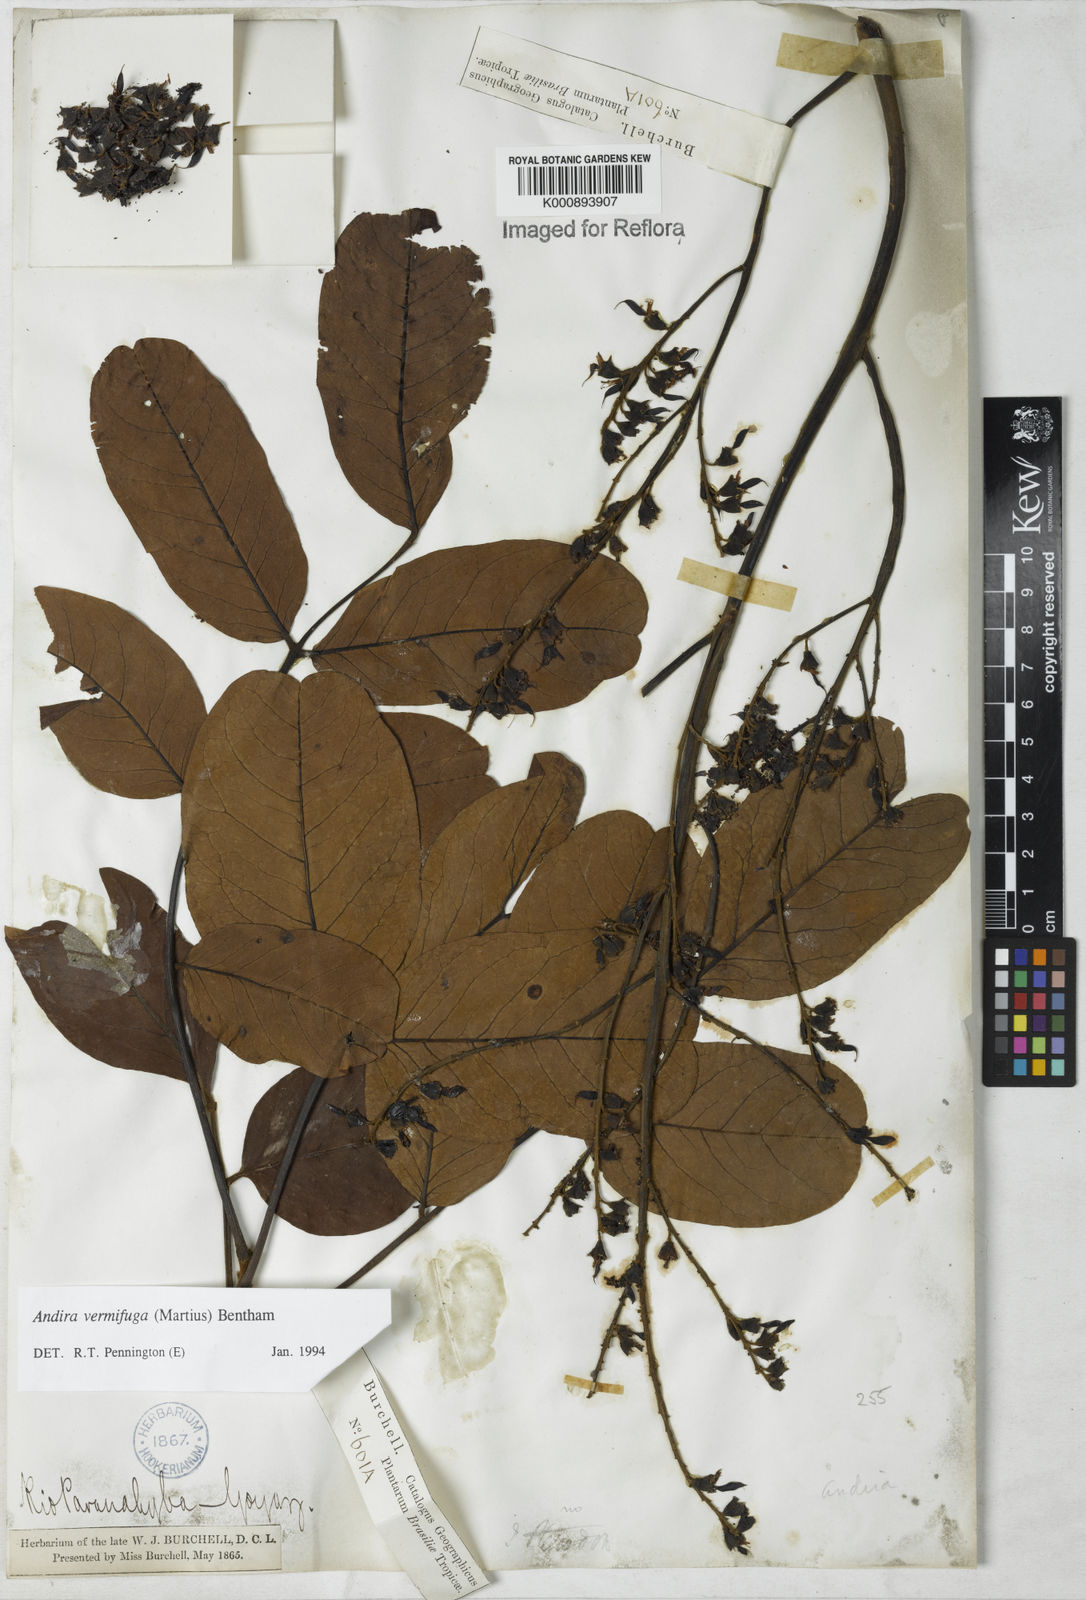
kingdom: Plantae
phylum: Tracheophyta
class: Magnoliopsida
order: Fabales
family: Fabaceae
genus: Andira
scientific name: Andira vermifuga
